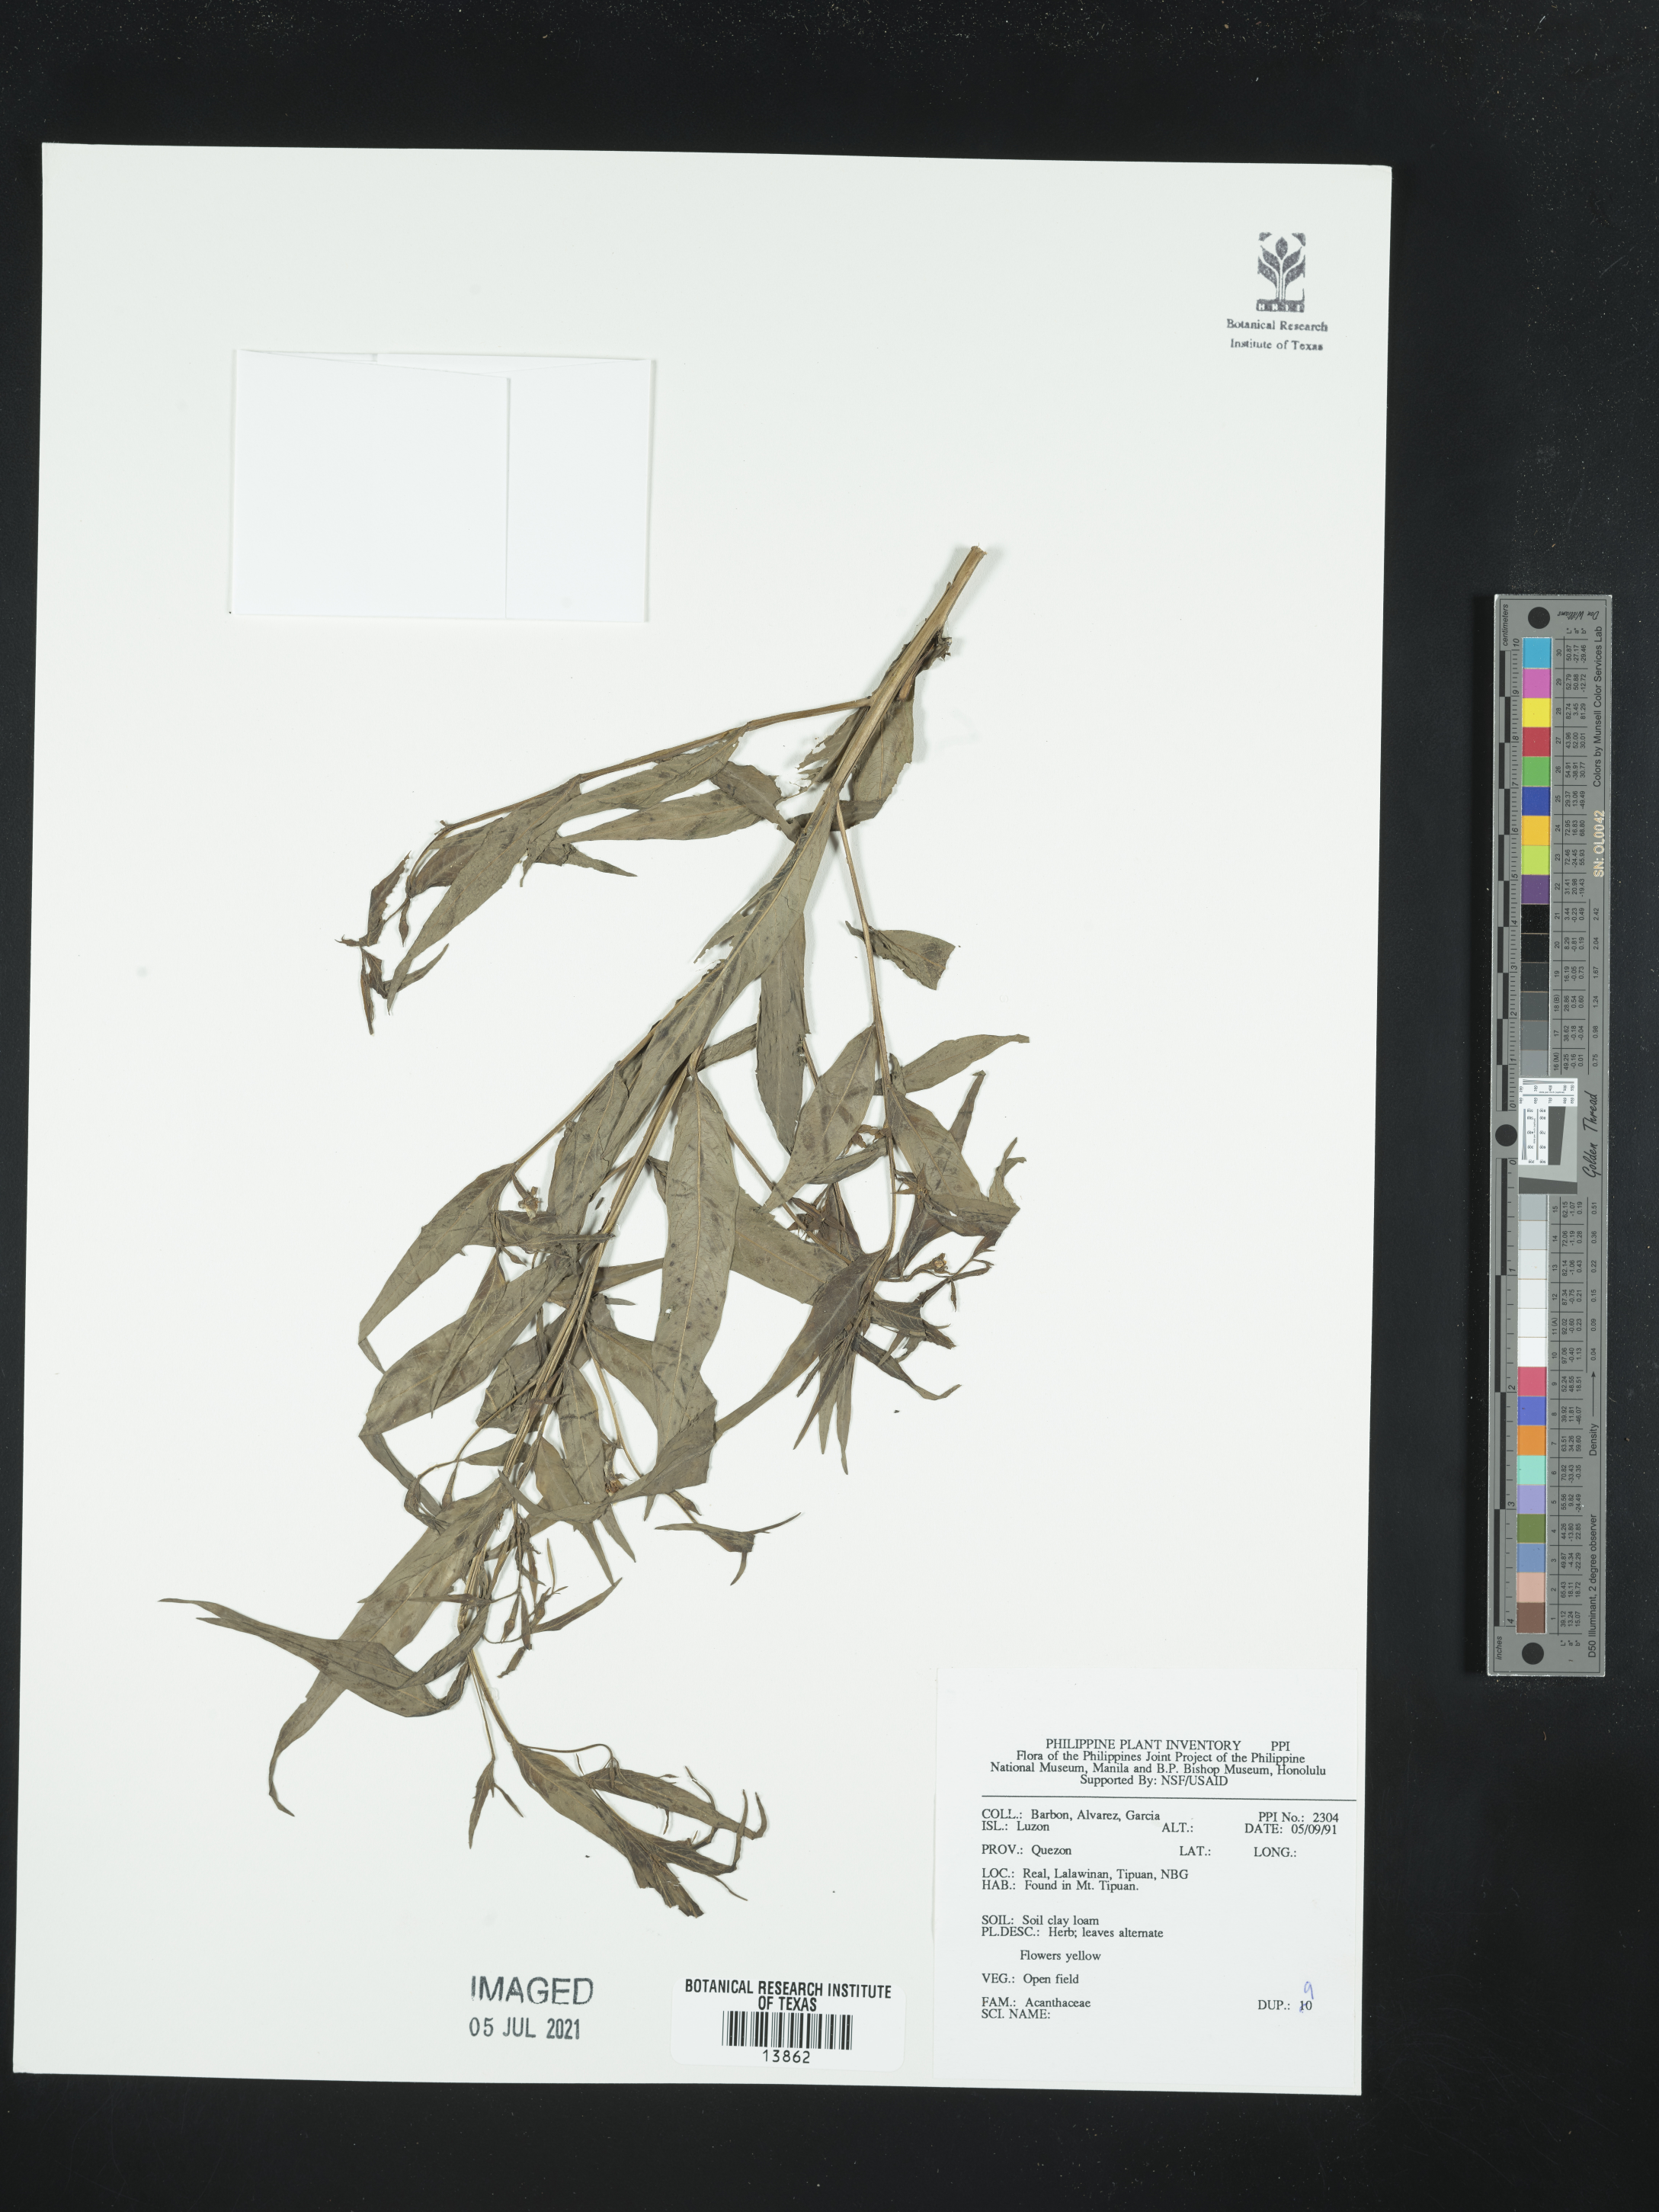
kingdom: Plantae
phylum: Tracheophyta
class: Magnoliopsida
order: Lamiales
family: Acanthaceae
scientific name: Acanthaceae
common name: Acanthaceae
